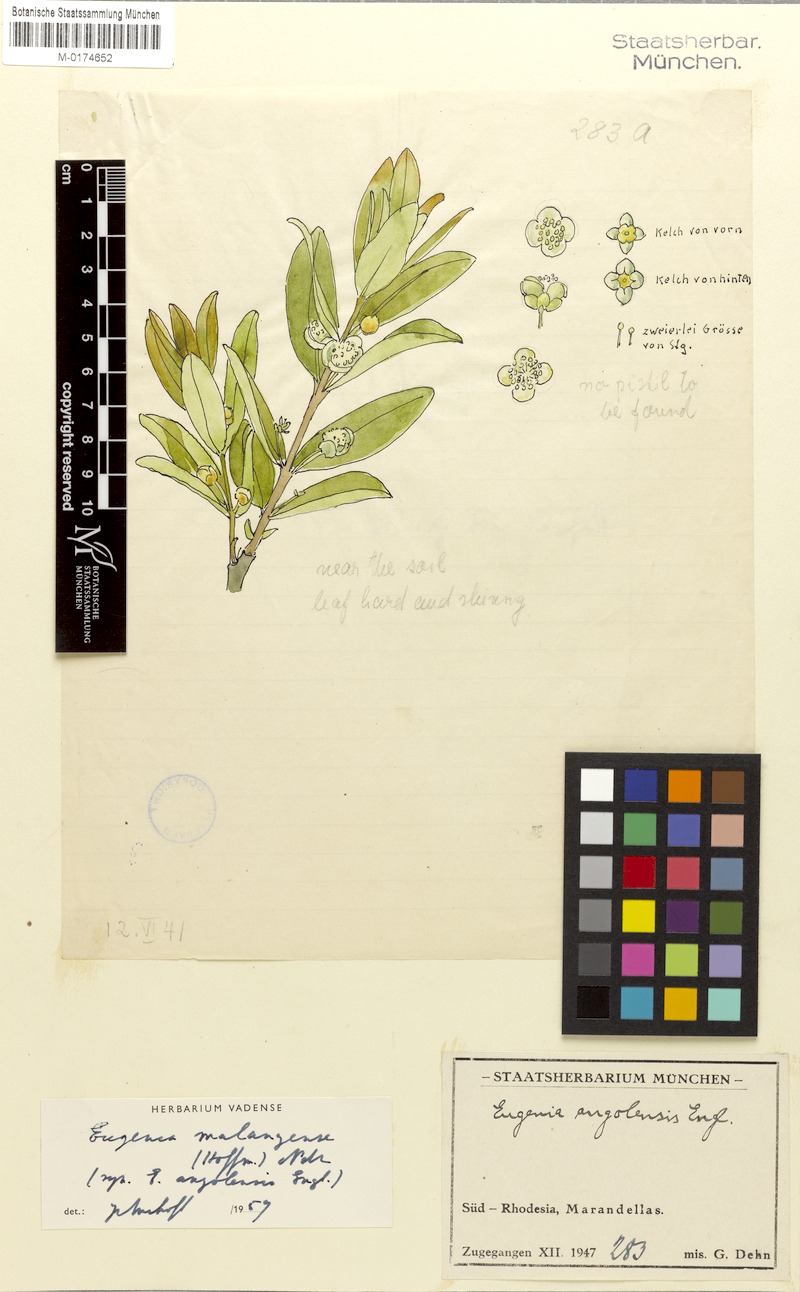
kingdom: Plantae
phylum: Tracheophyta
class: Magnoliopsida
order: Myrtales
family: Myrtaceae
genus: Eugenia
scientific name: Eugenia malangensis
